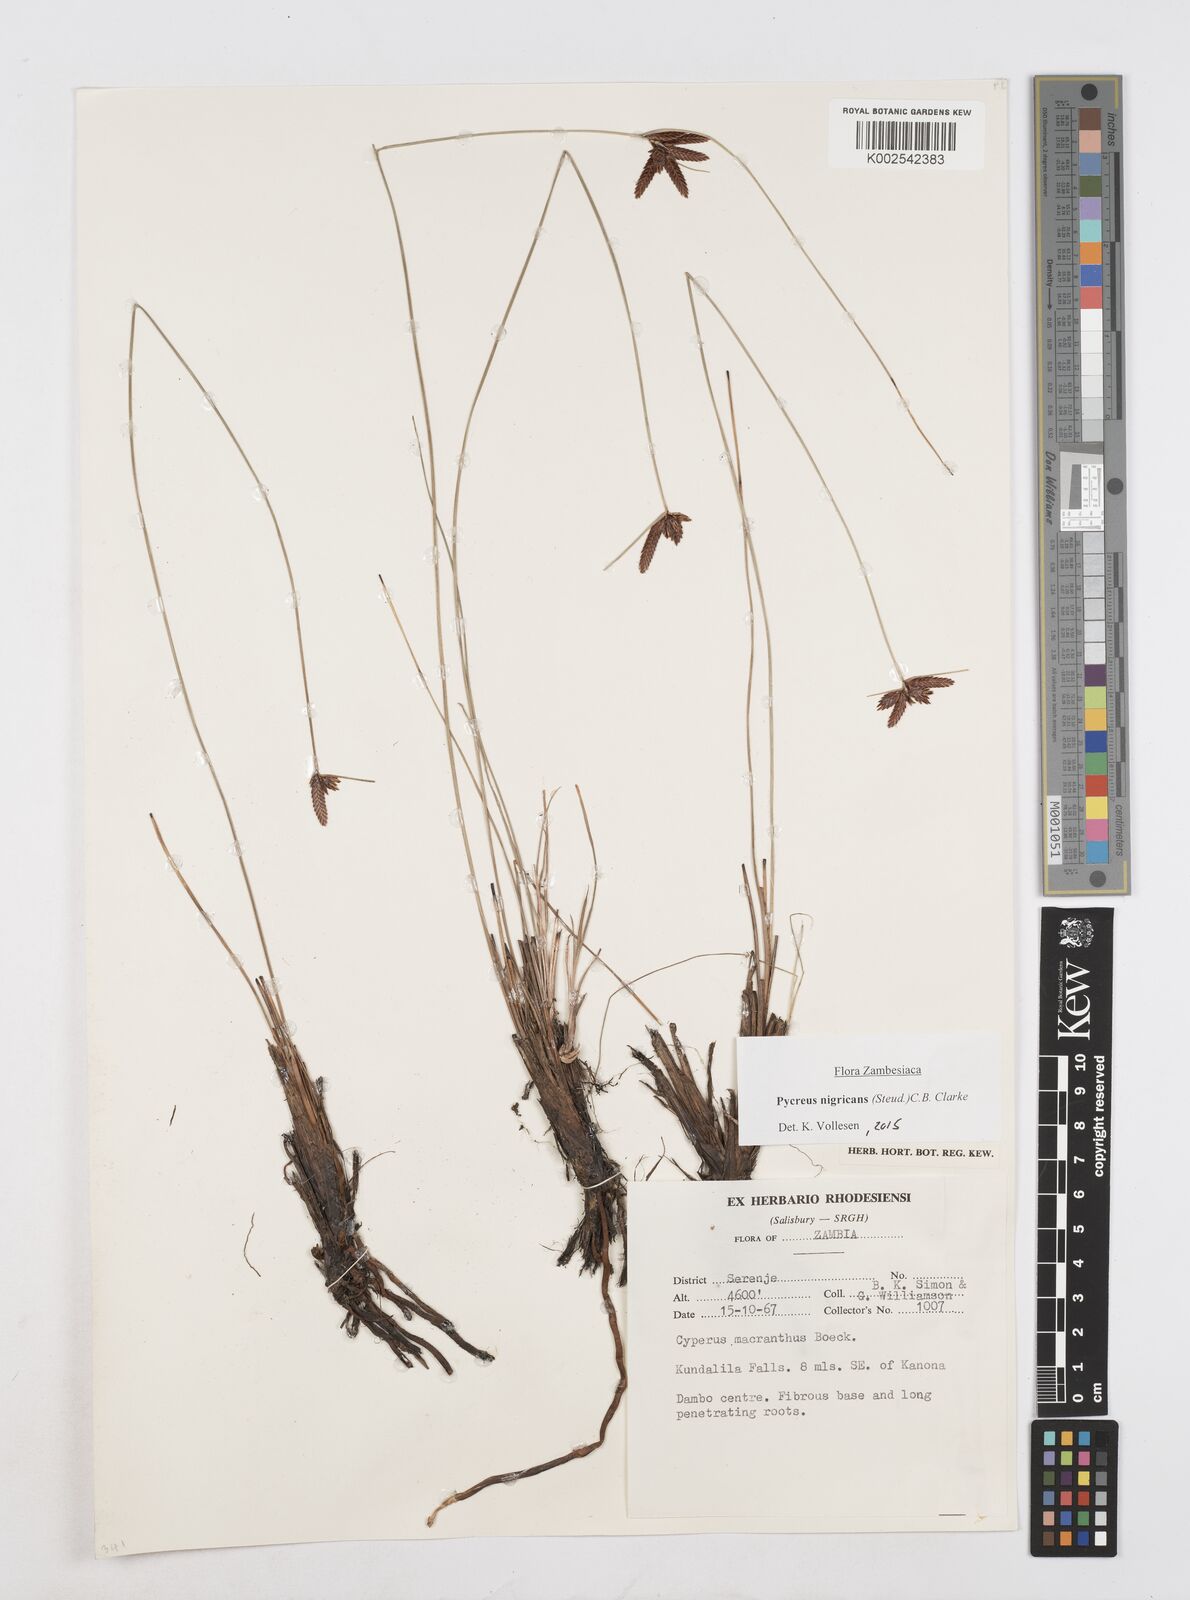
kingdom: Plantae
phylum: Tracheophyta
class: Liliopsida
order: Poales
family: Cyperaceae
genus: Cyperus
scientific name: Cyperus nigricans
